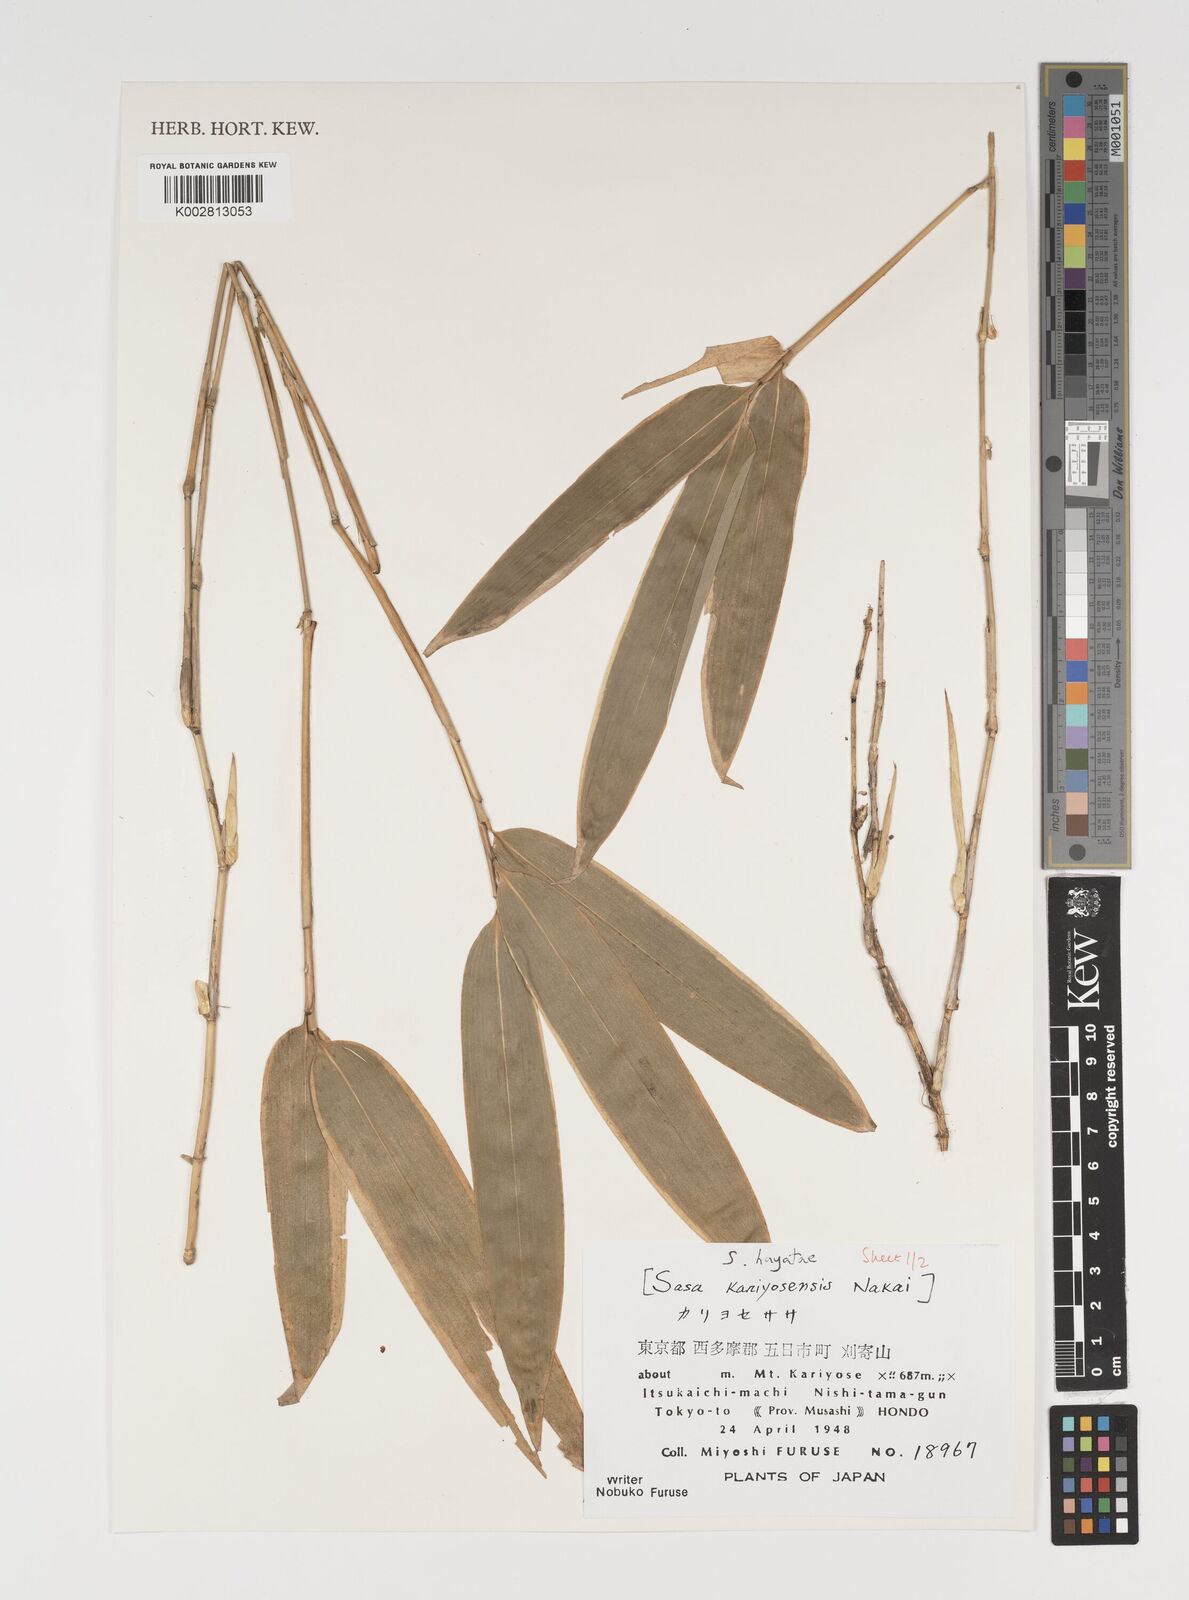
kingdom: Plantae
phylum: Tracheophyta
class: Liliopsida
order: Poales
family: Poaceae
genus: Sasa
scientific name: Sasa hayatae
